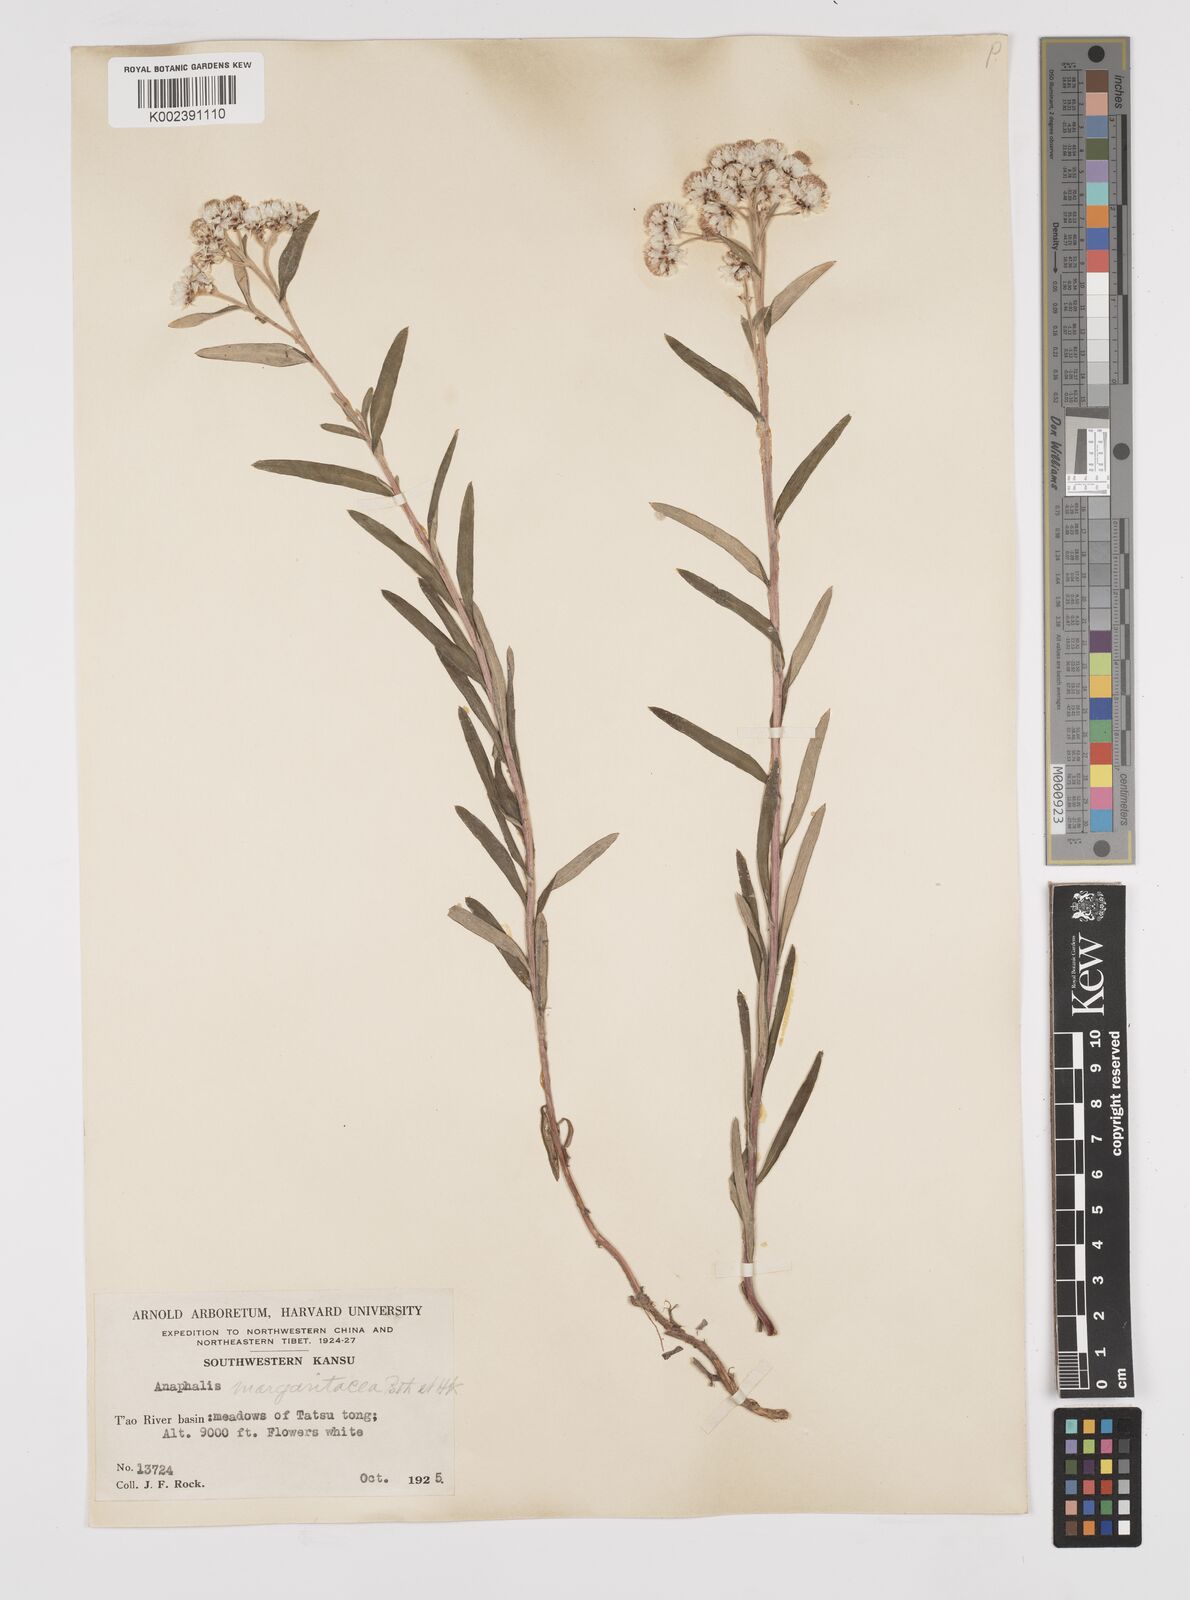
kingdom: Plantae
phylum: Tracheophyta
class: Magnoliopsida
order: Asterales
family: Asteraceae
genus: Anaphalis
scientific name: Anaphalis margaritacea
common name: Pearly everlasting
